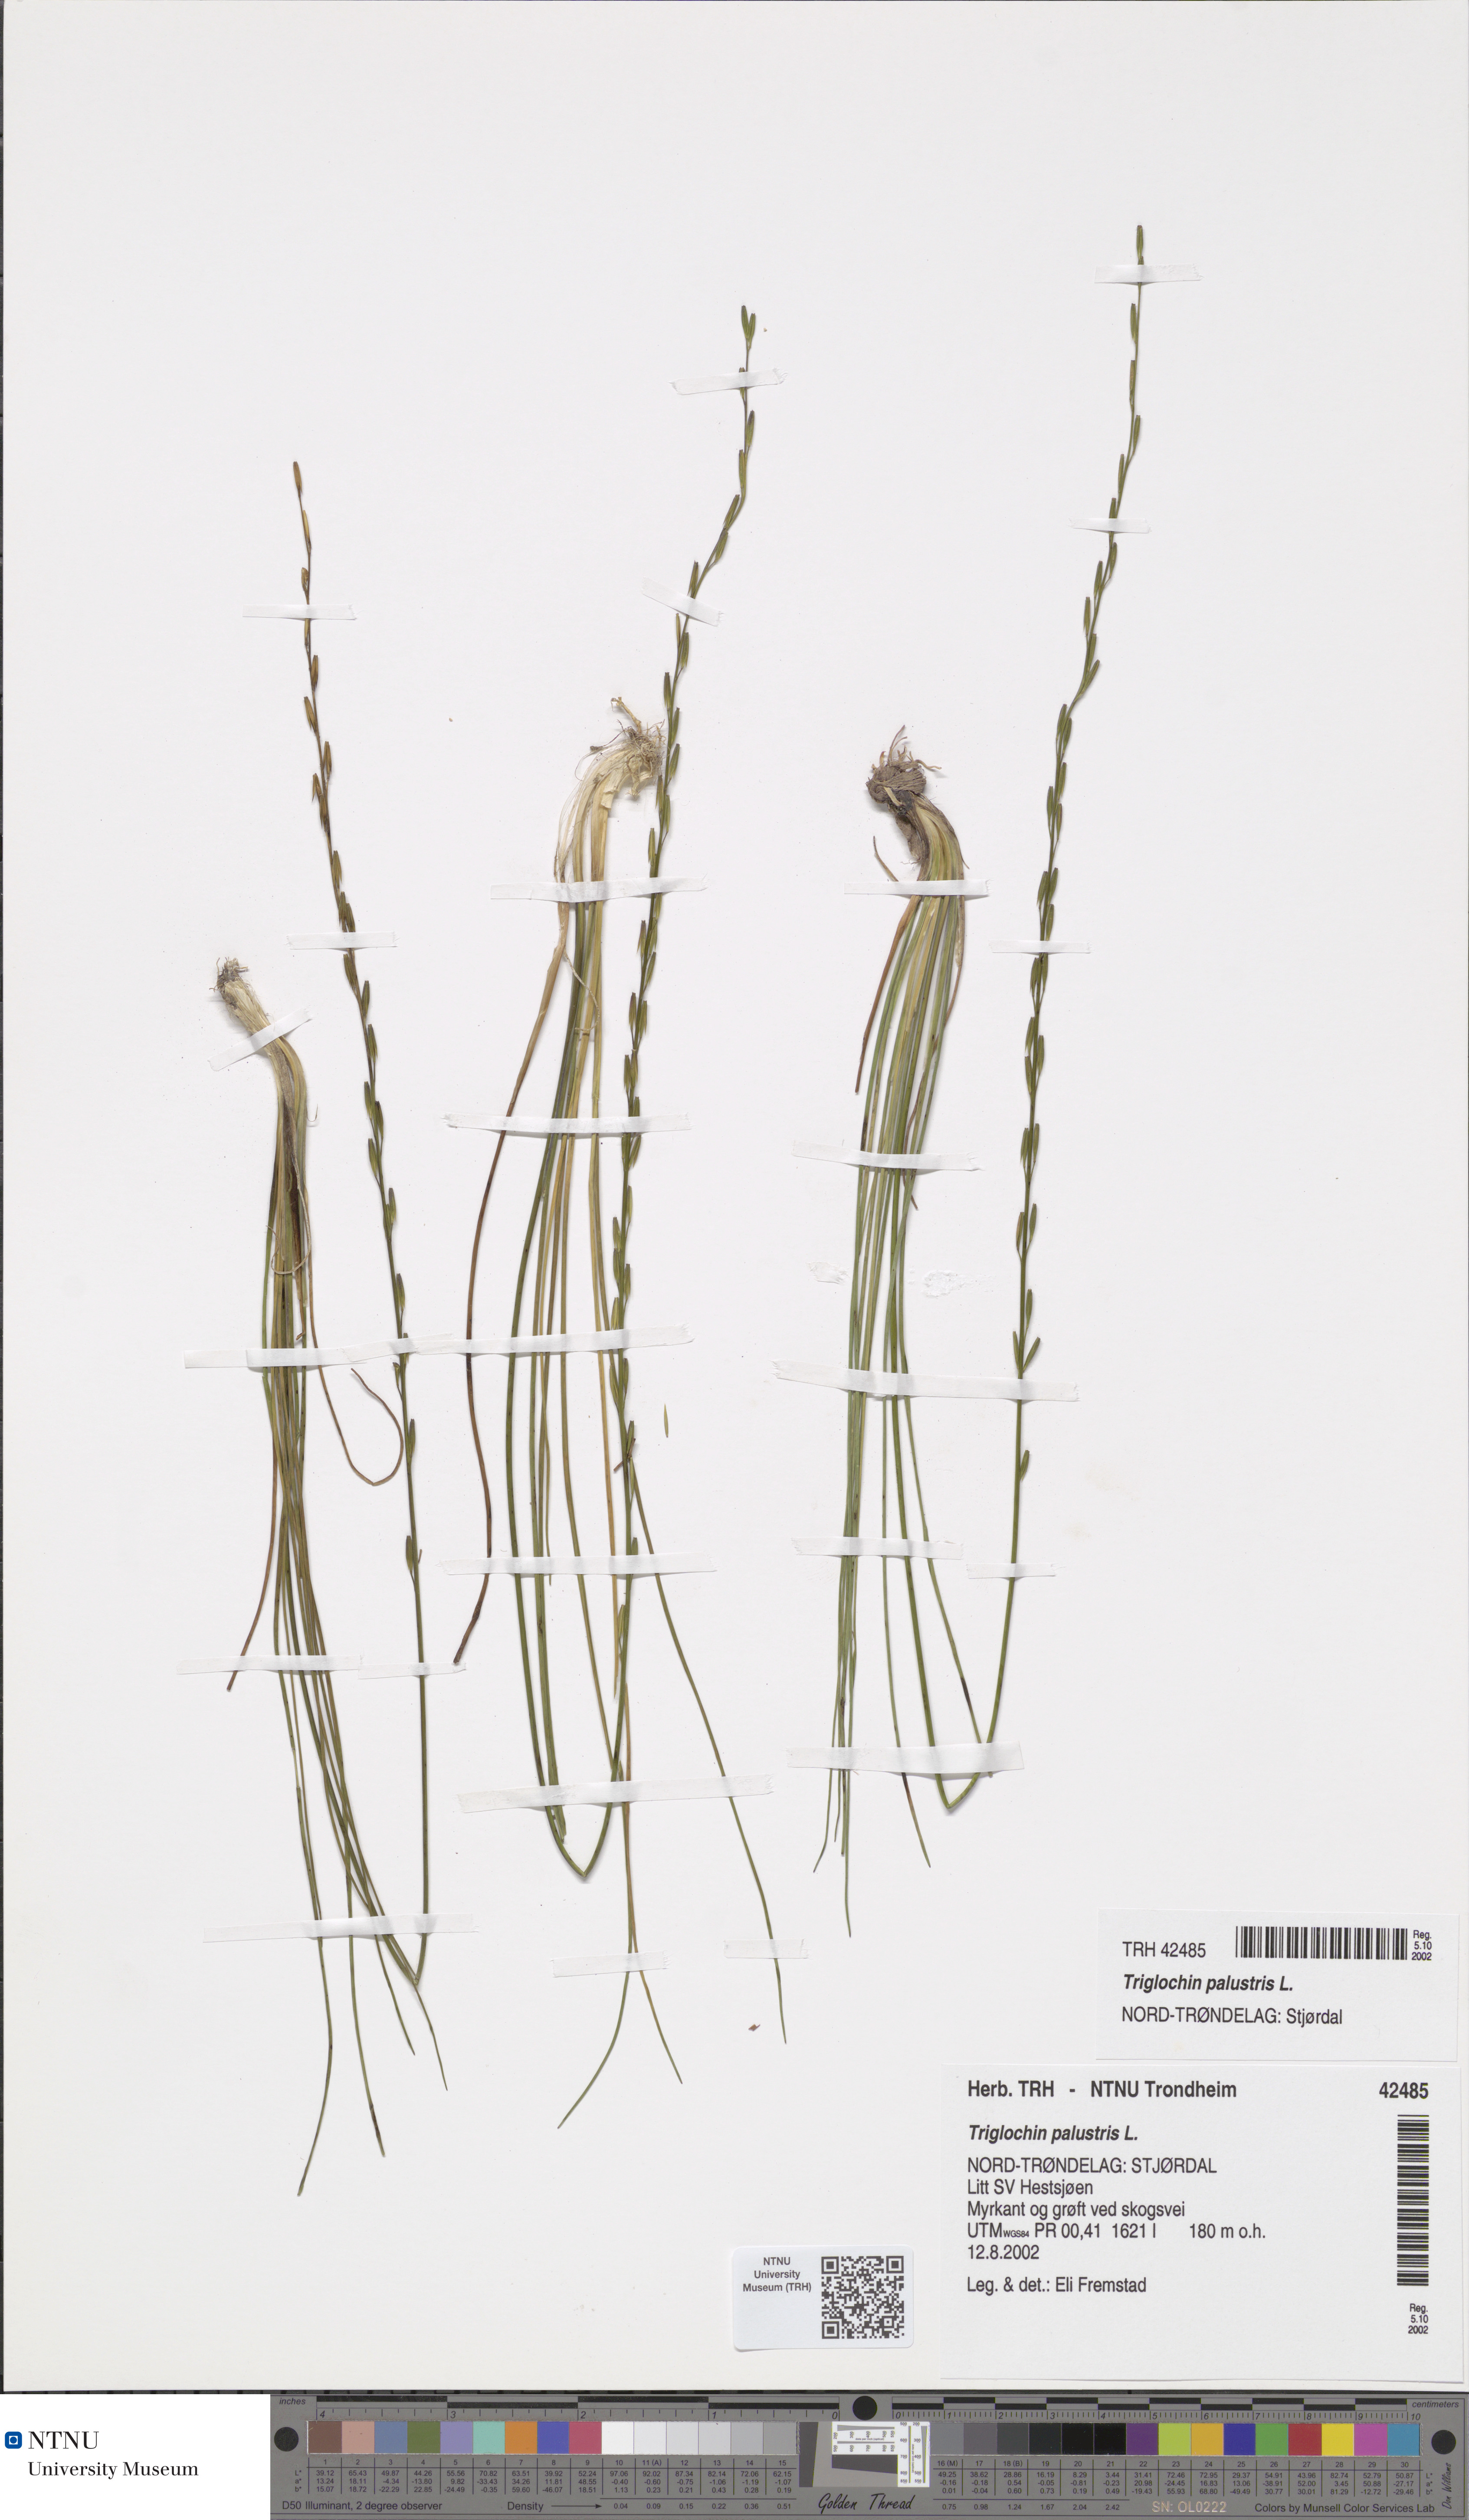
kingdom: Plantae
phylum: Tracheophyta
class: Liliopsida
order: Alismatales
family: Juncaginaceae
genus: Triglochin
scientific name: Triglochin palustris
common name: Marsh arrowgrass
